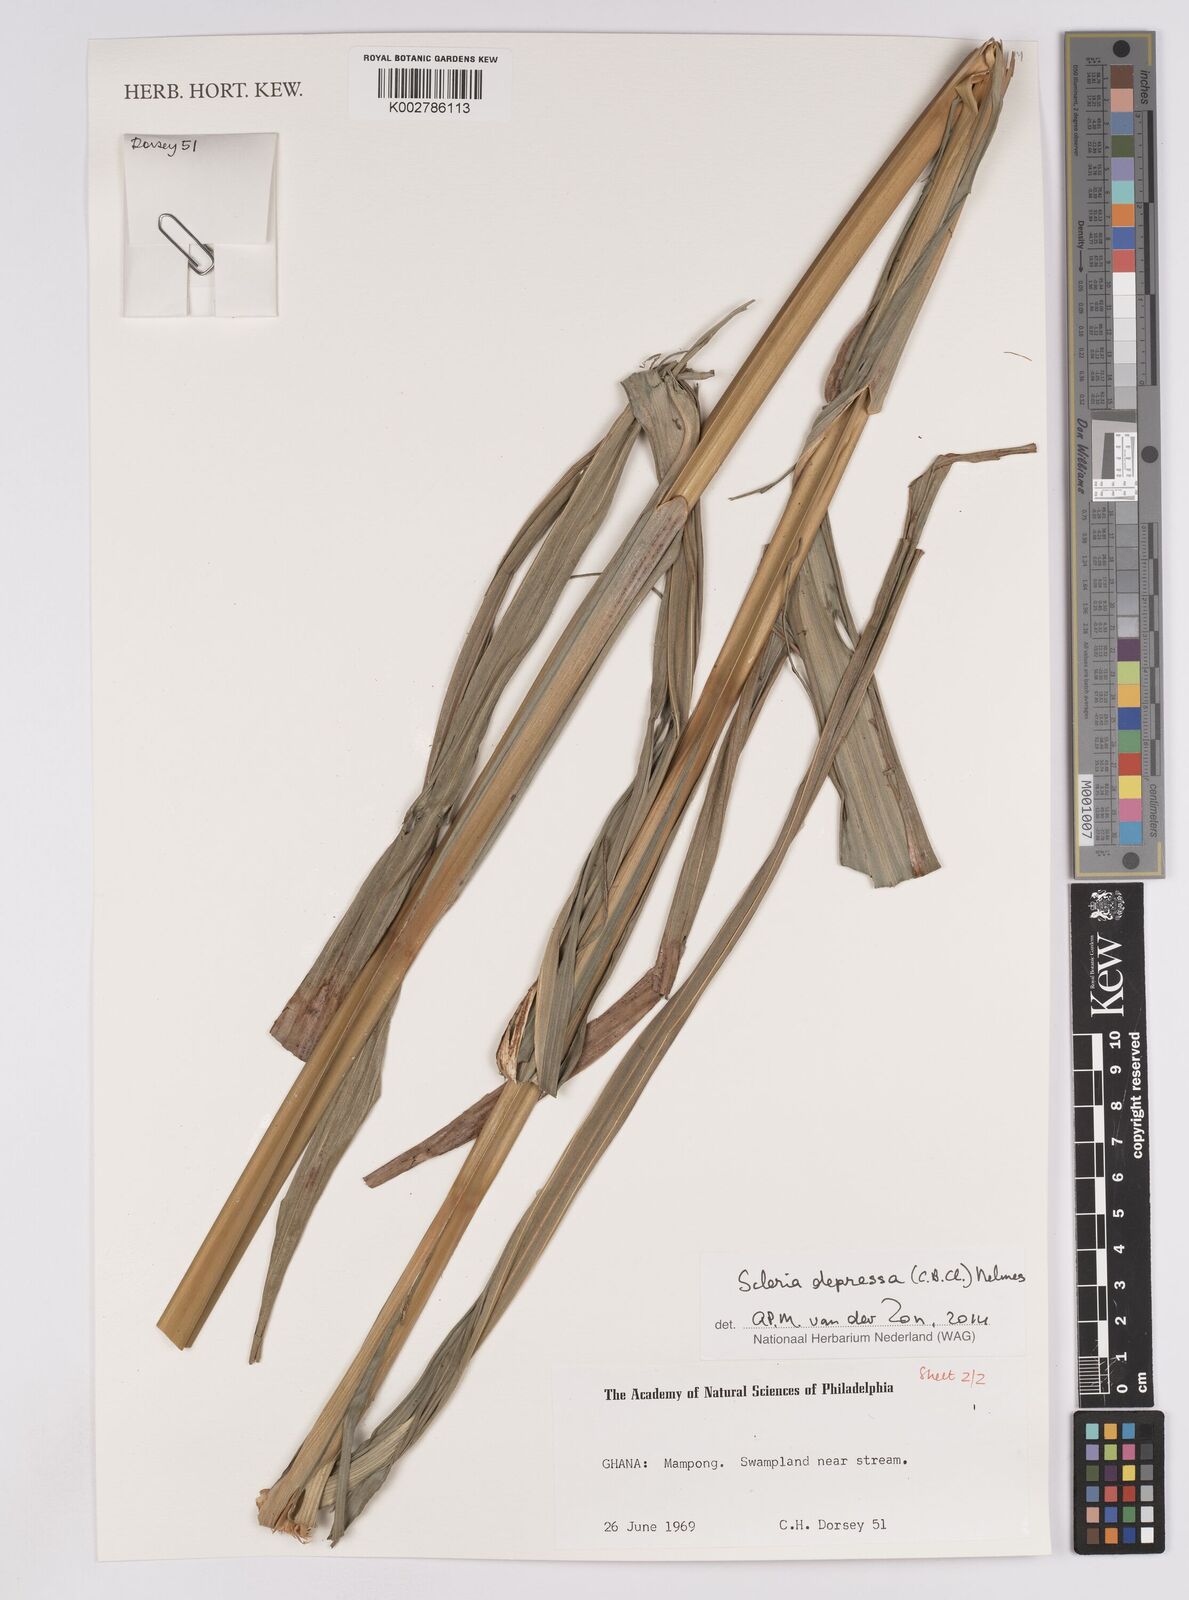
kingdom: Plantae
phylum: Tracheophyta
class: Liliopsida
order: Poales
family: Cyperaceae
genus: Scleria
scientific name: Scleria depressa
